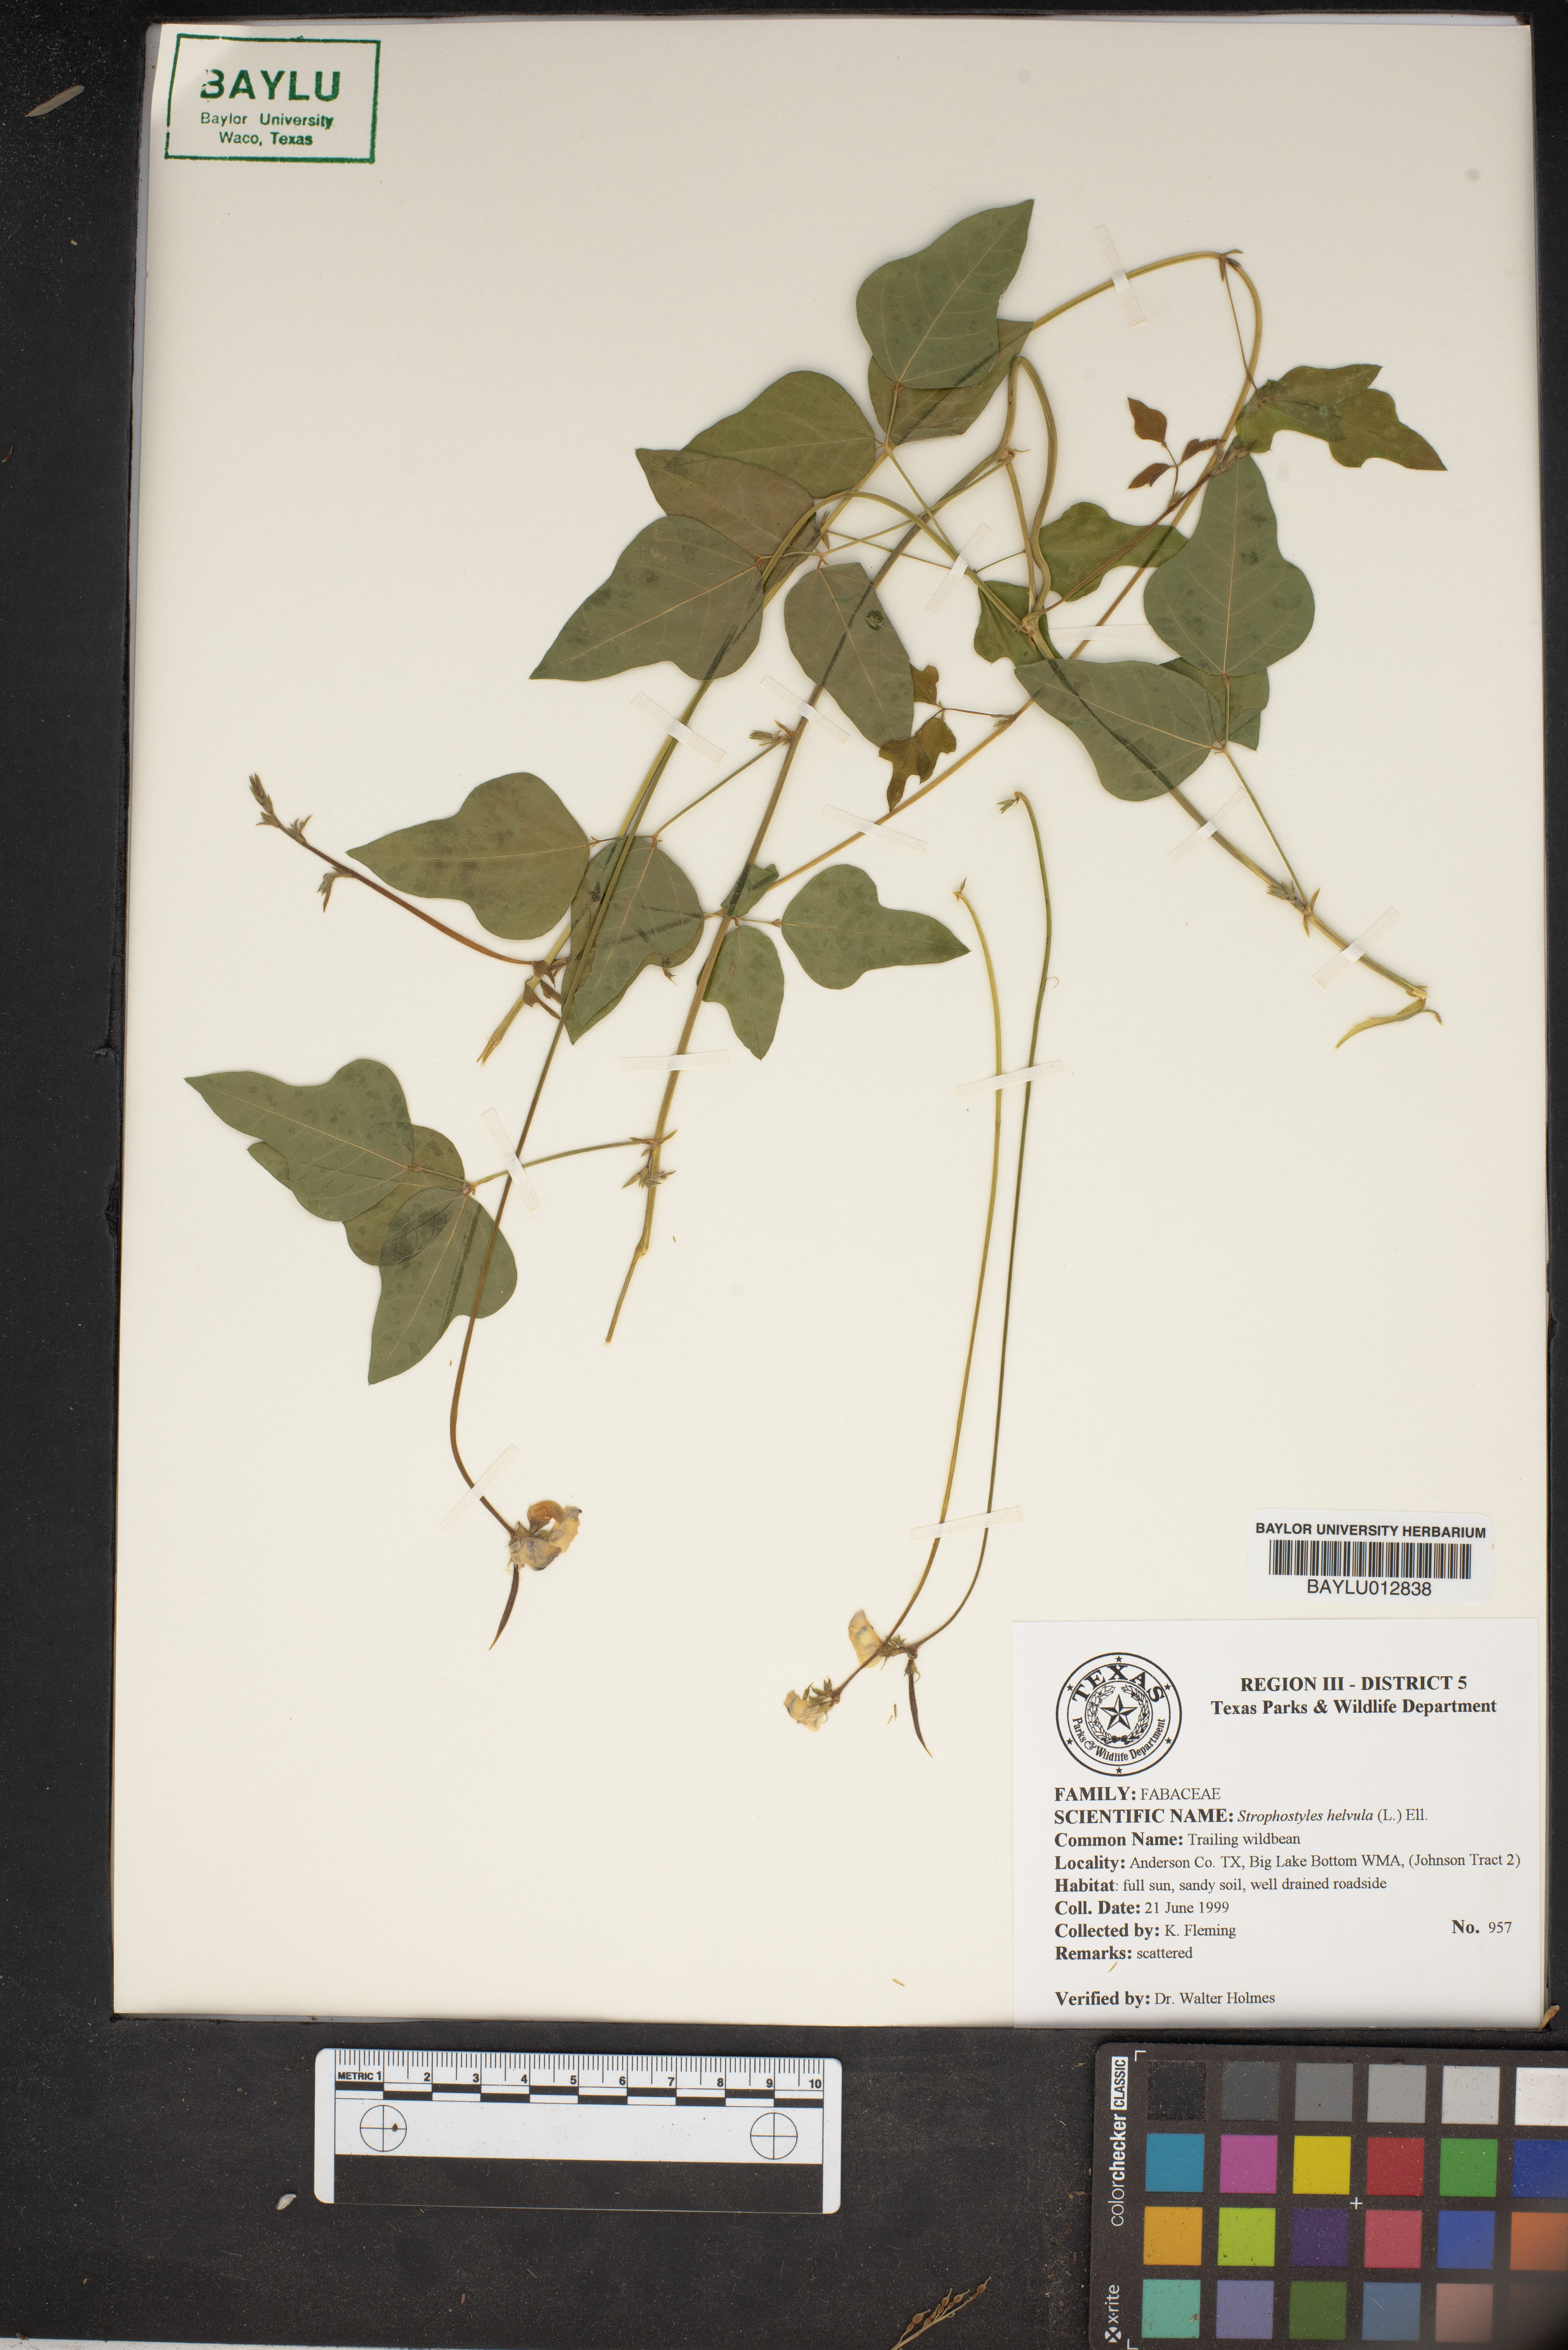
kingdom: Plantae
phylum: Tracheophyta
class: Magnoliopsida
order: Fabales
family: Fabaceae
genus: Strophostyles
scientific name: Strophostyles helvula
